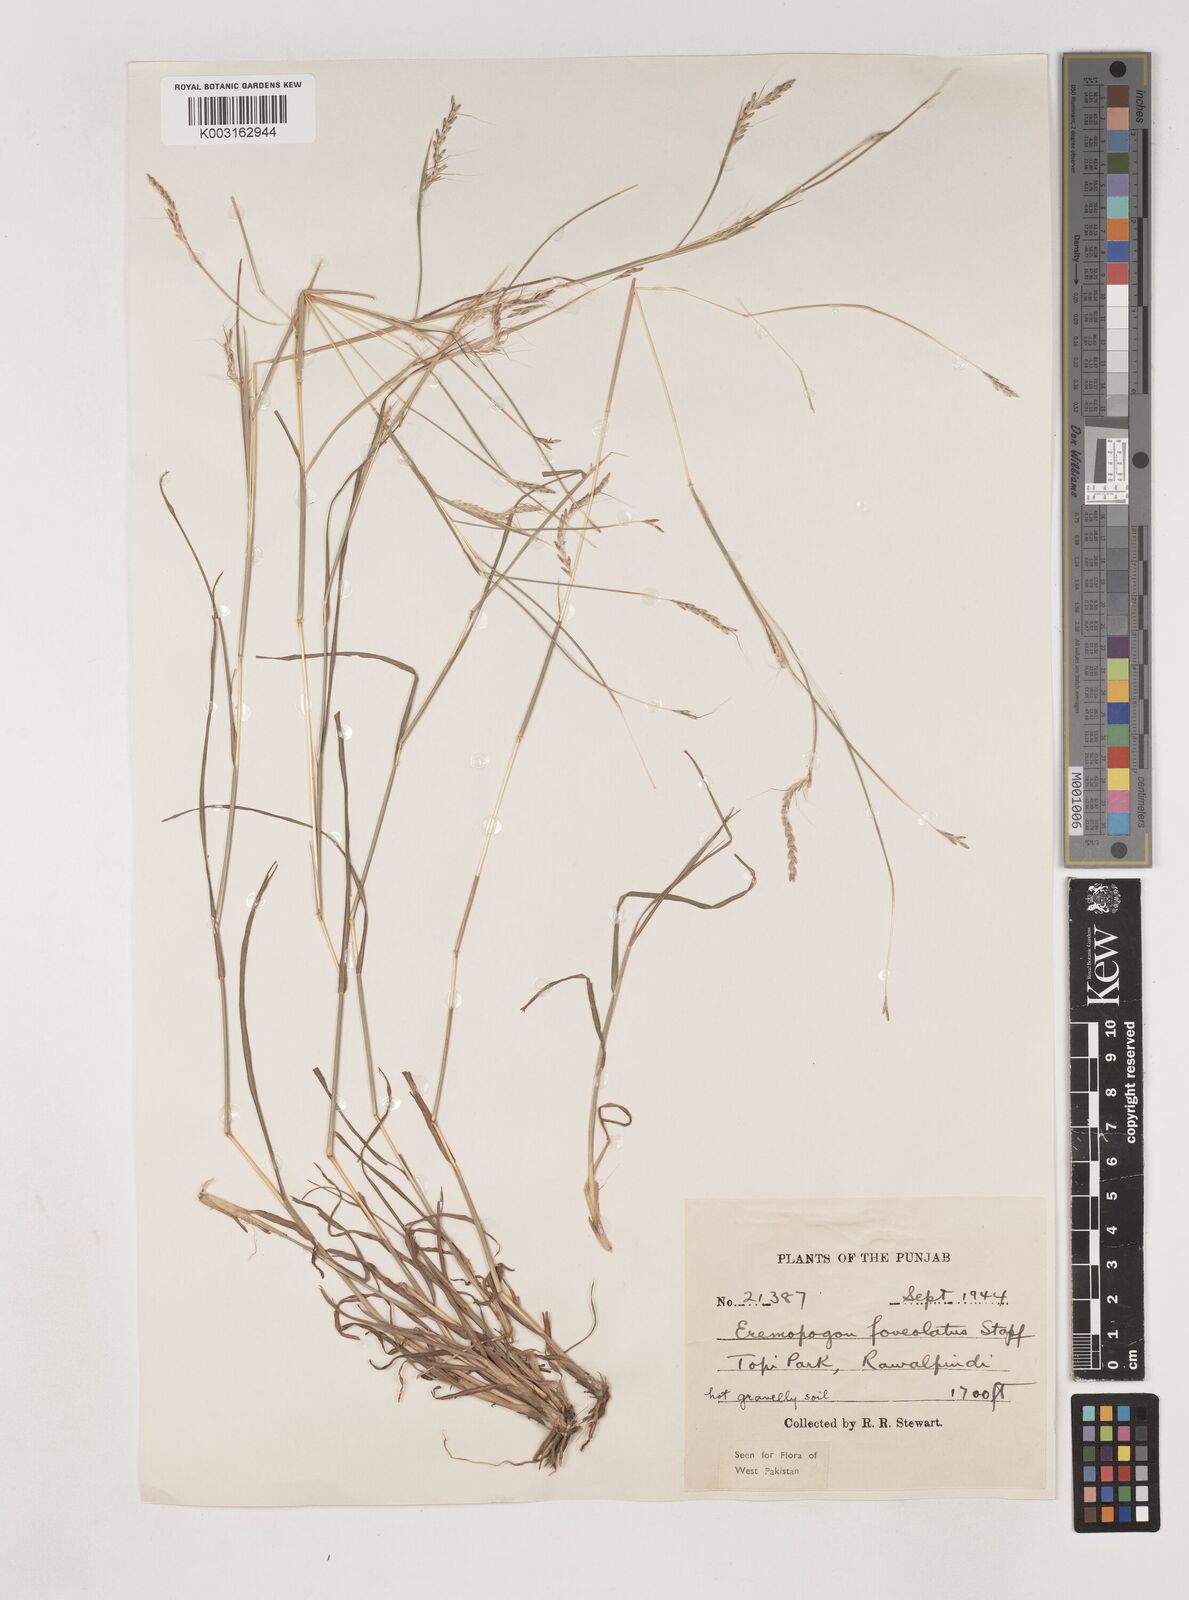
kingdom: Plantae
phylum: Tracheophyta
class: Liliopsida
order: Poales
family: Poaceae
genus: Dichanthium
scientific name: Dichanthium
